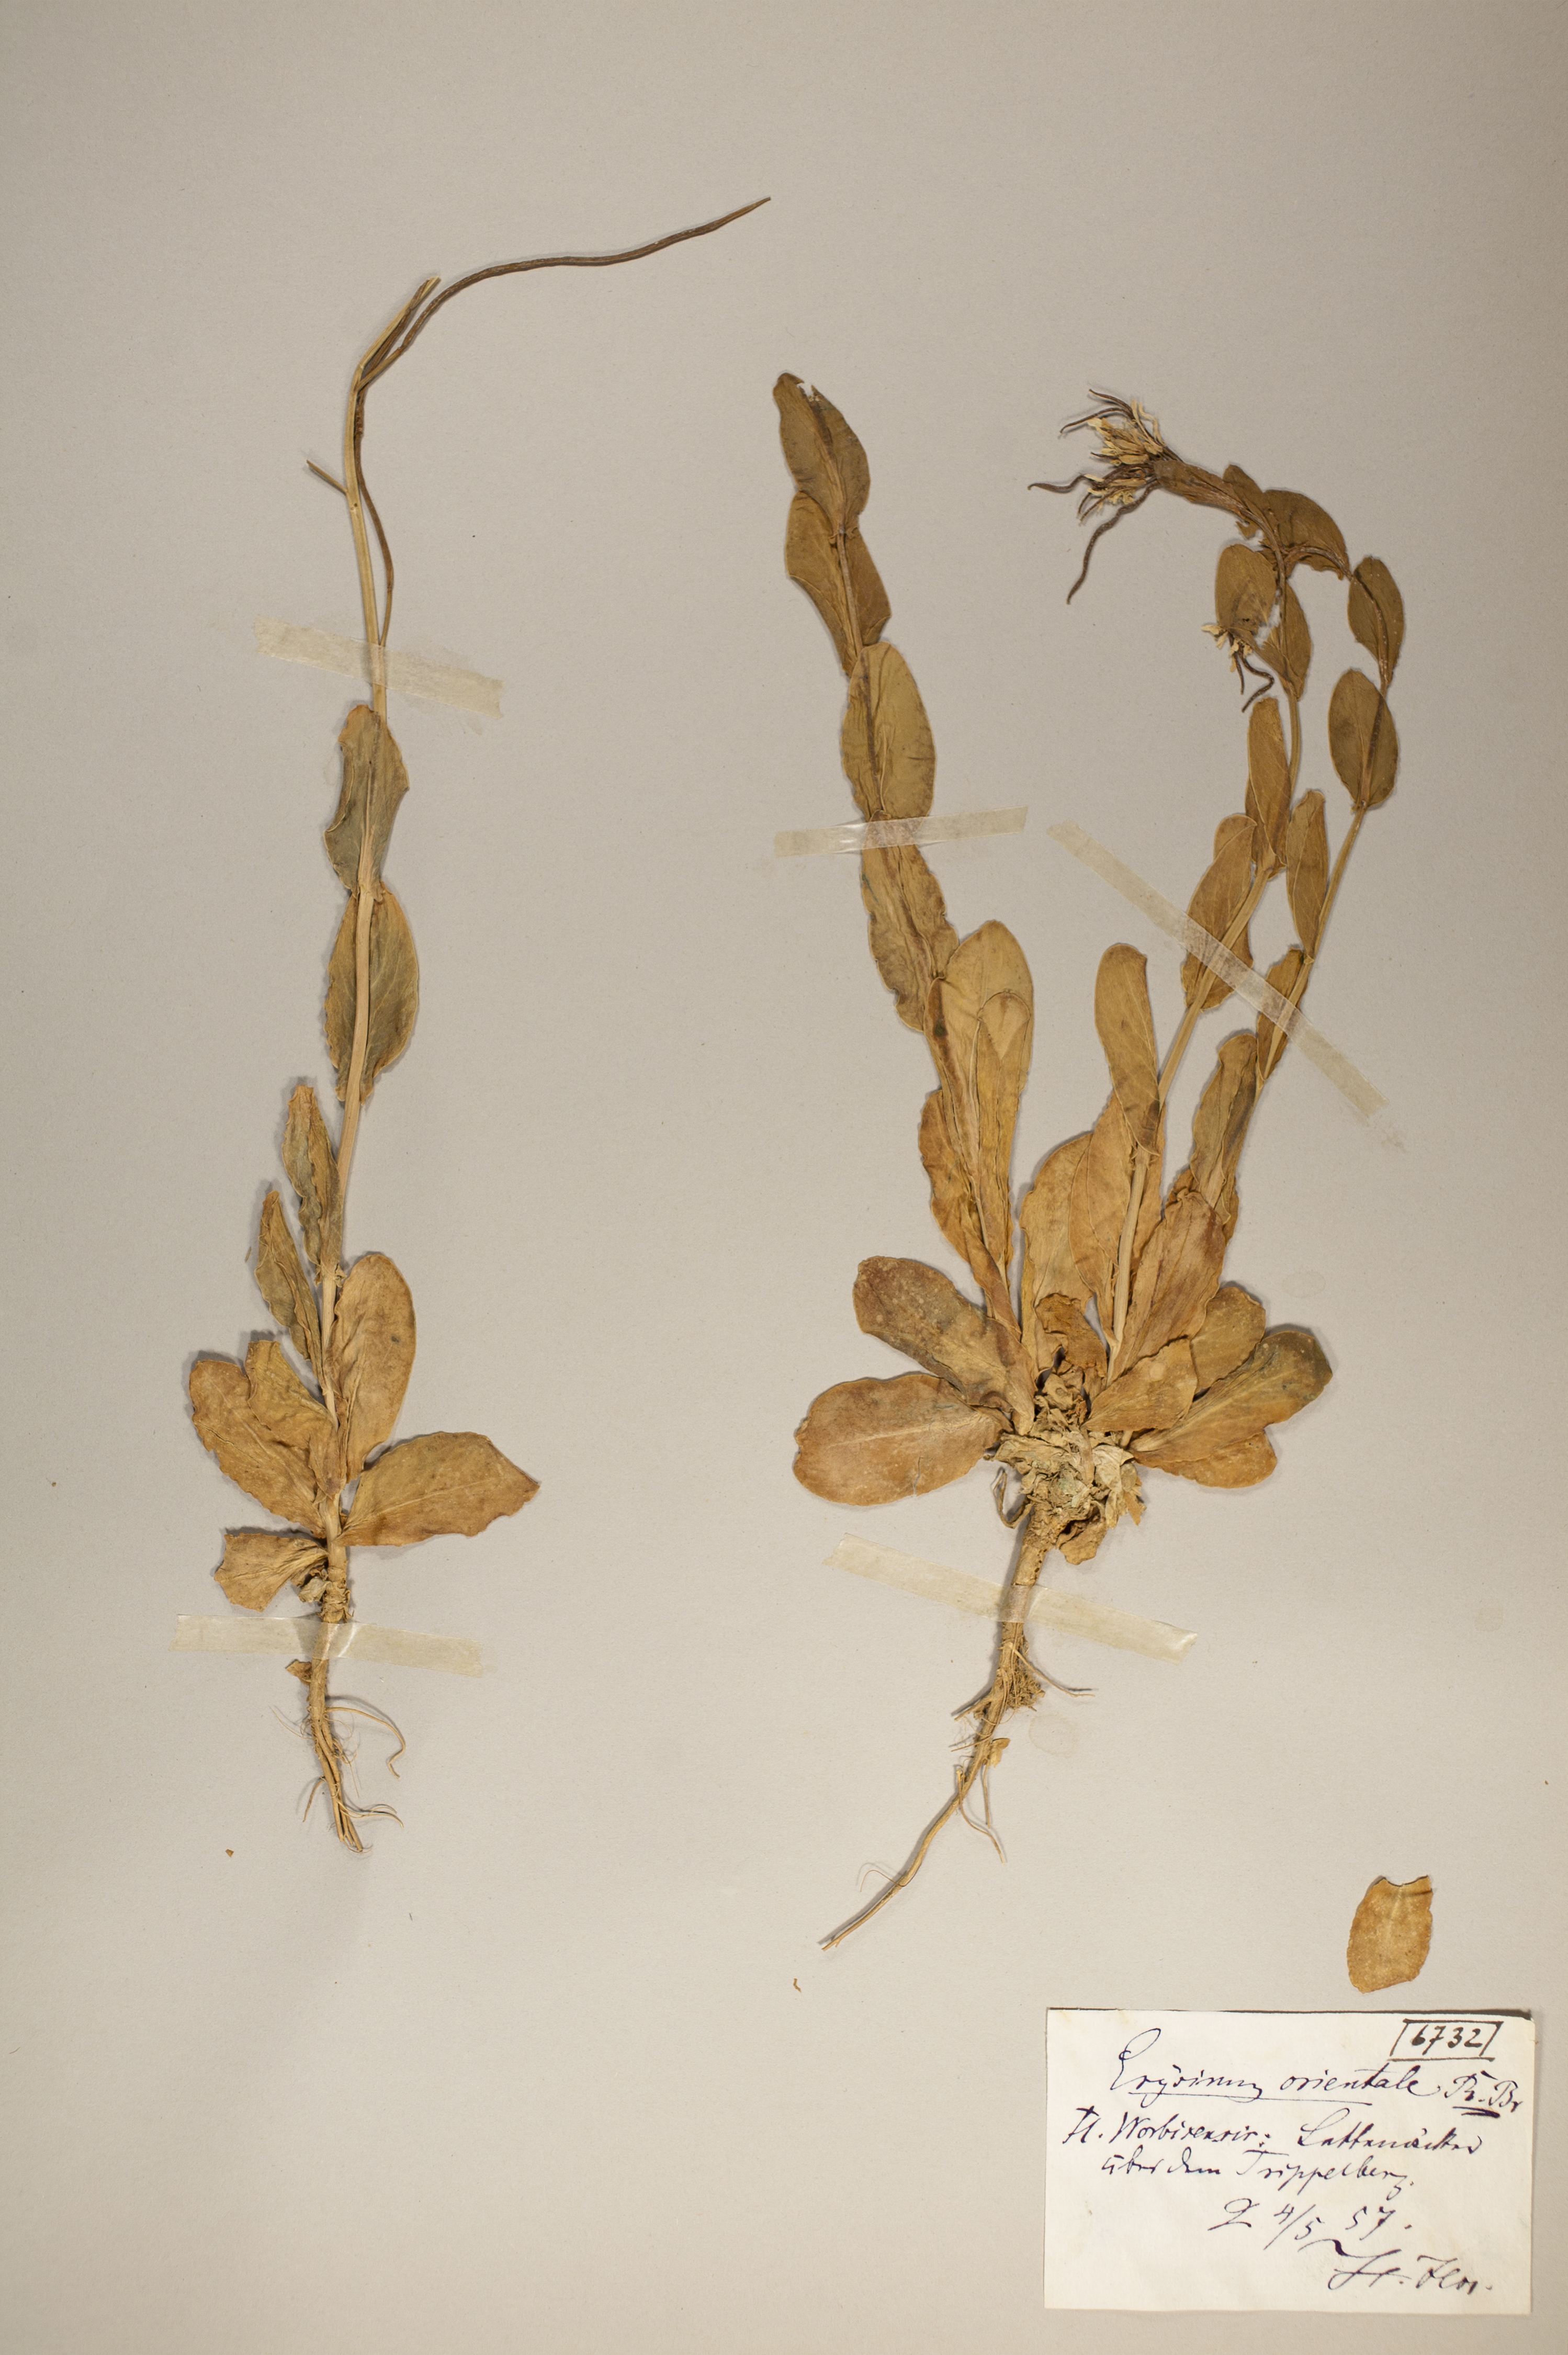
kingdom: Plantae
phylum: Tracheophyta
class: Magnoliopsida
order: Brassicales
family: Brassicaceae
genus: Conringia
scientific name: Conringia orientalis
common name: Hare's ear mustard
